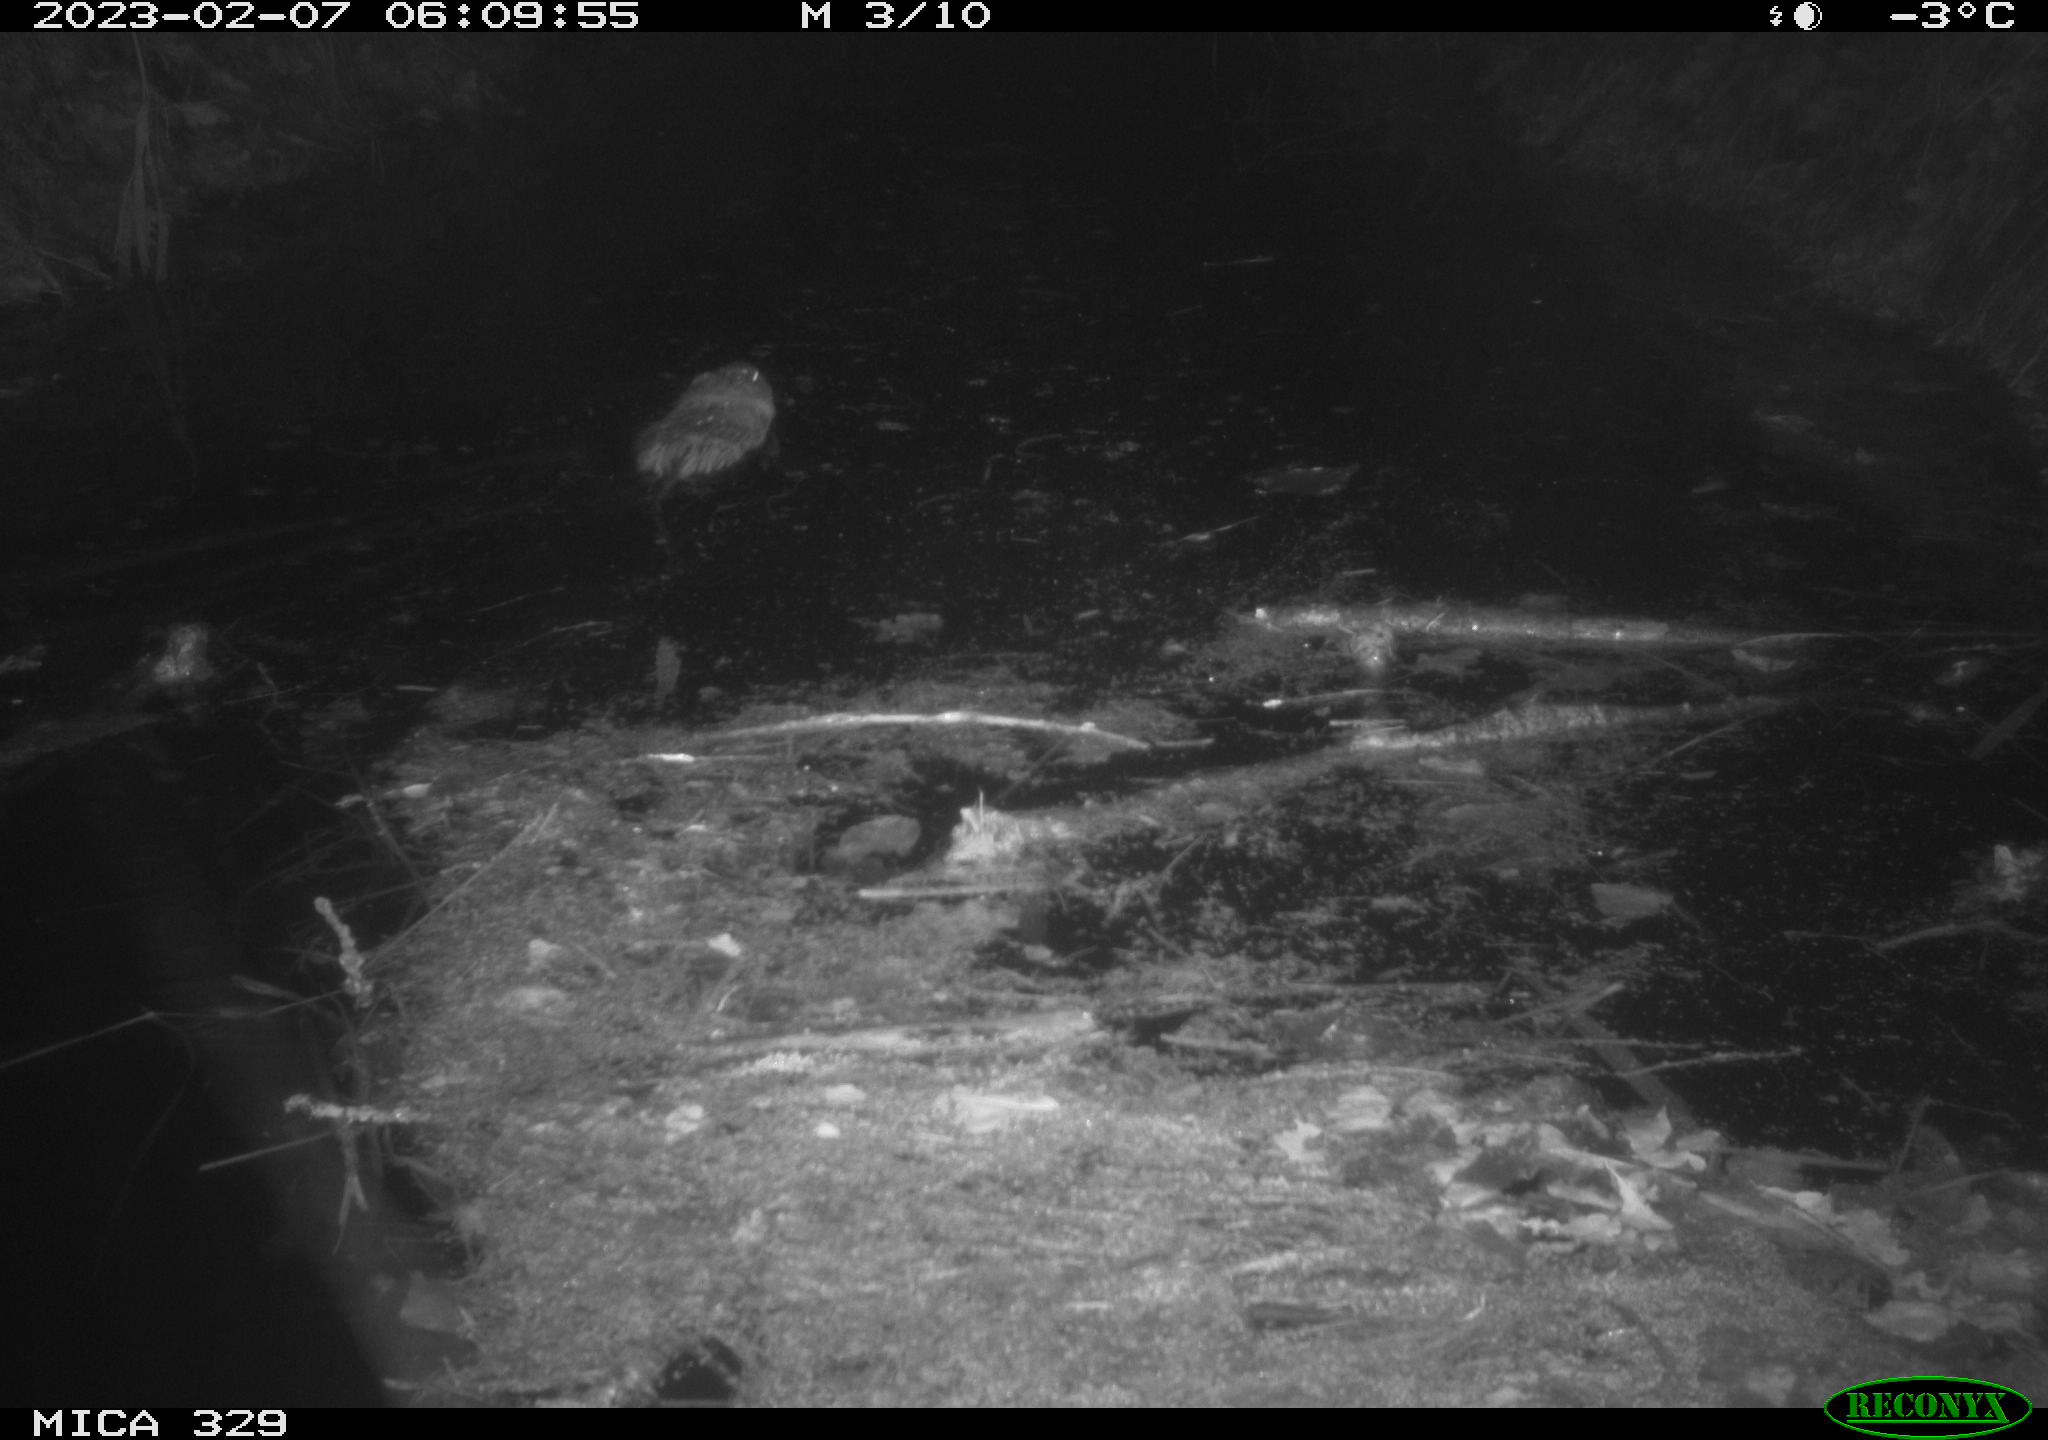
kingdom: Animalia
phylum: Chordata
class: Mammalia
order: Rodentia
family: Cricetidae
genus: Ondatra
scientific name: Ondatra zibethicus
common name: Muskrat
